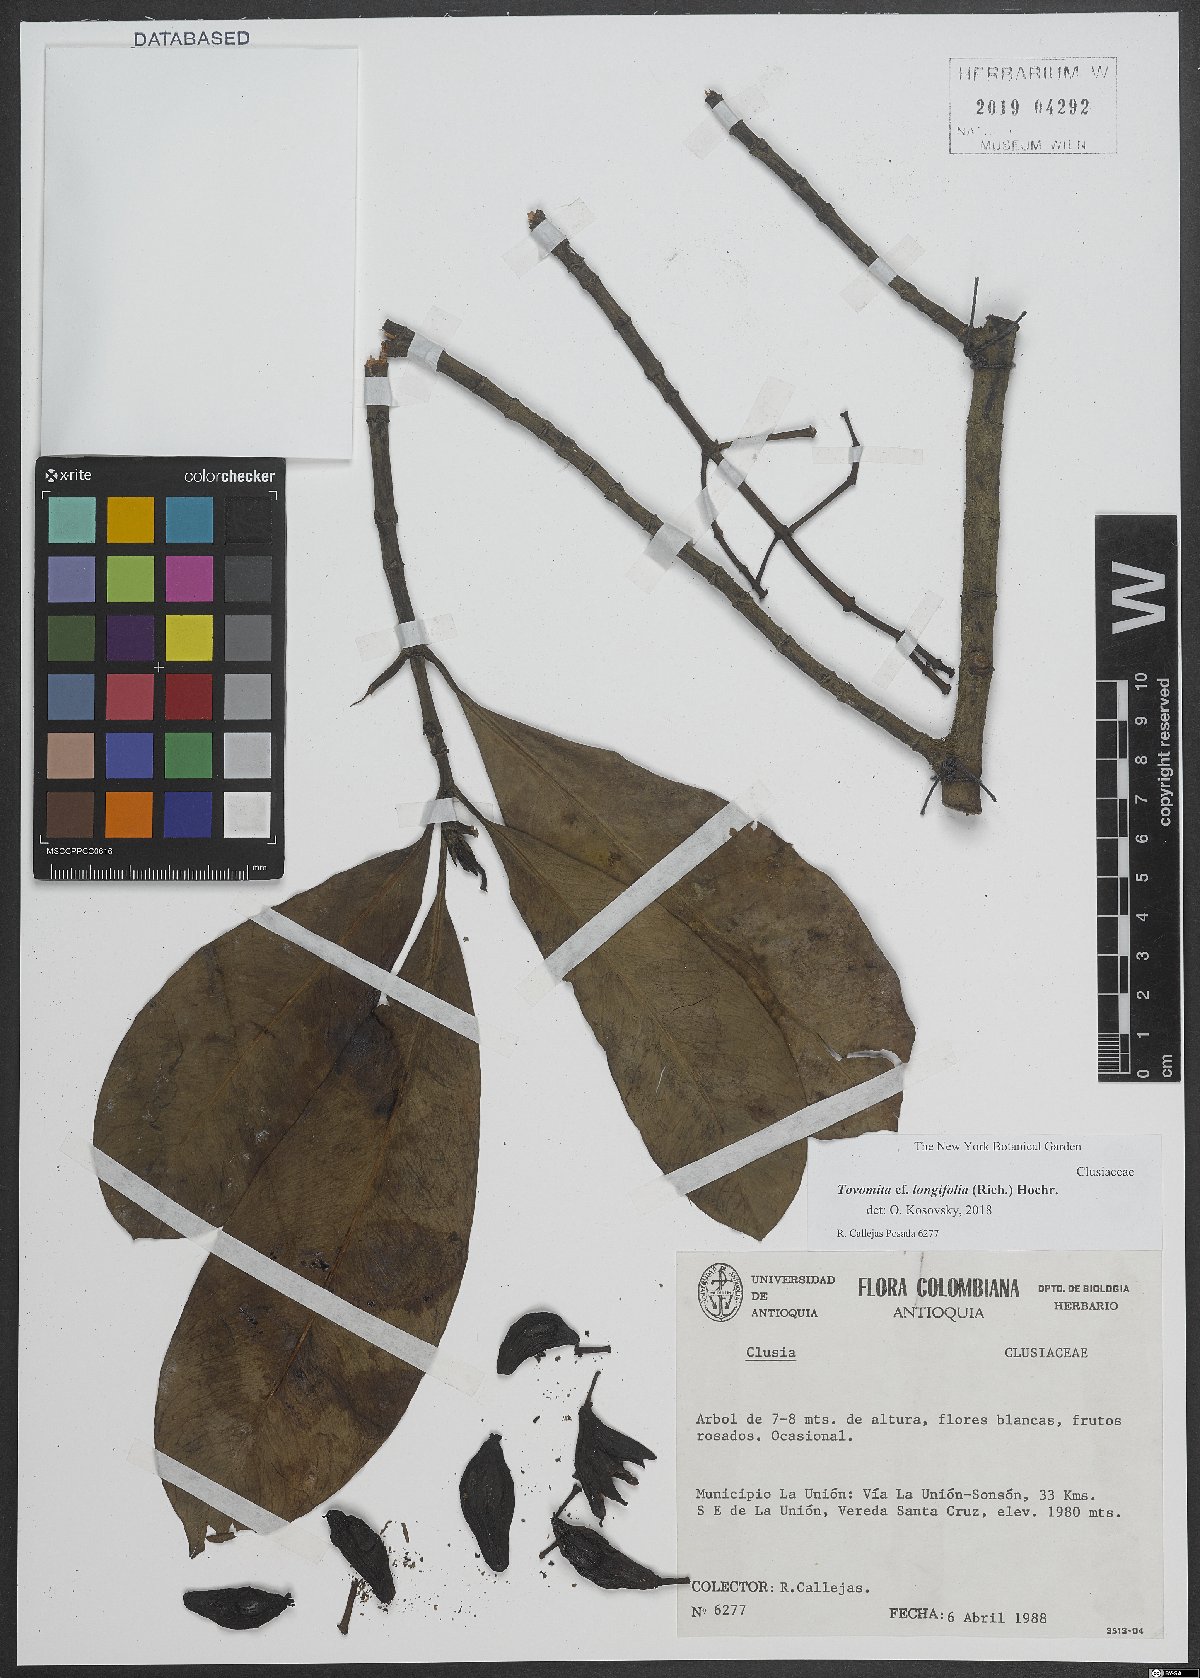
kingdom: Plantae
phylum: Tracheophyta
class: Magnoliopsida
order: Malpighiales
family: Clusiaceae
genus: Tovomita
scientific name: Tovomita longifolia
